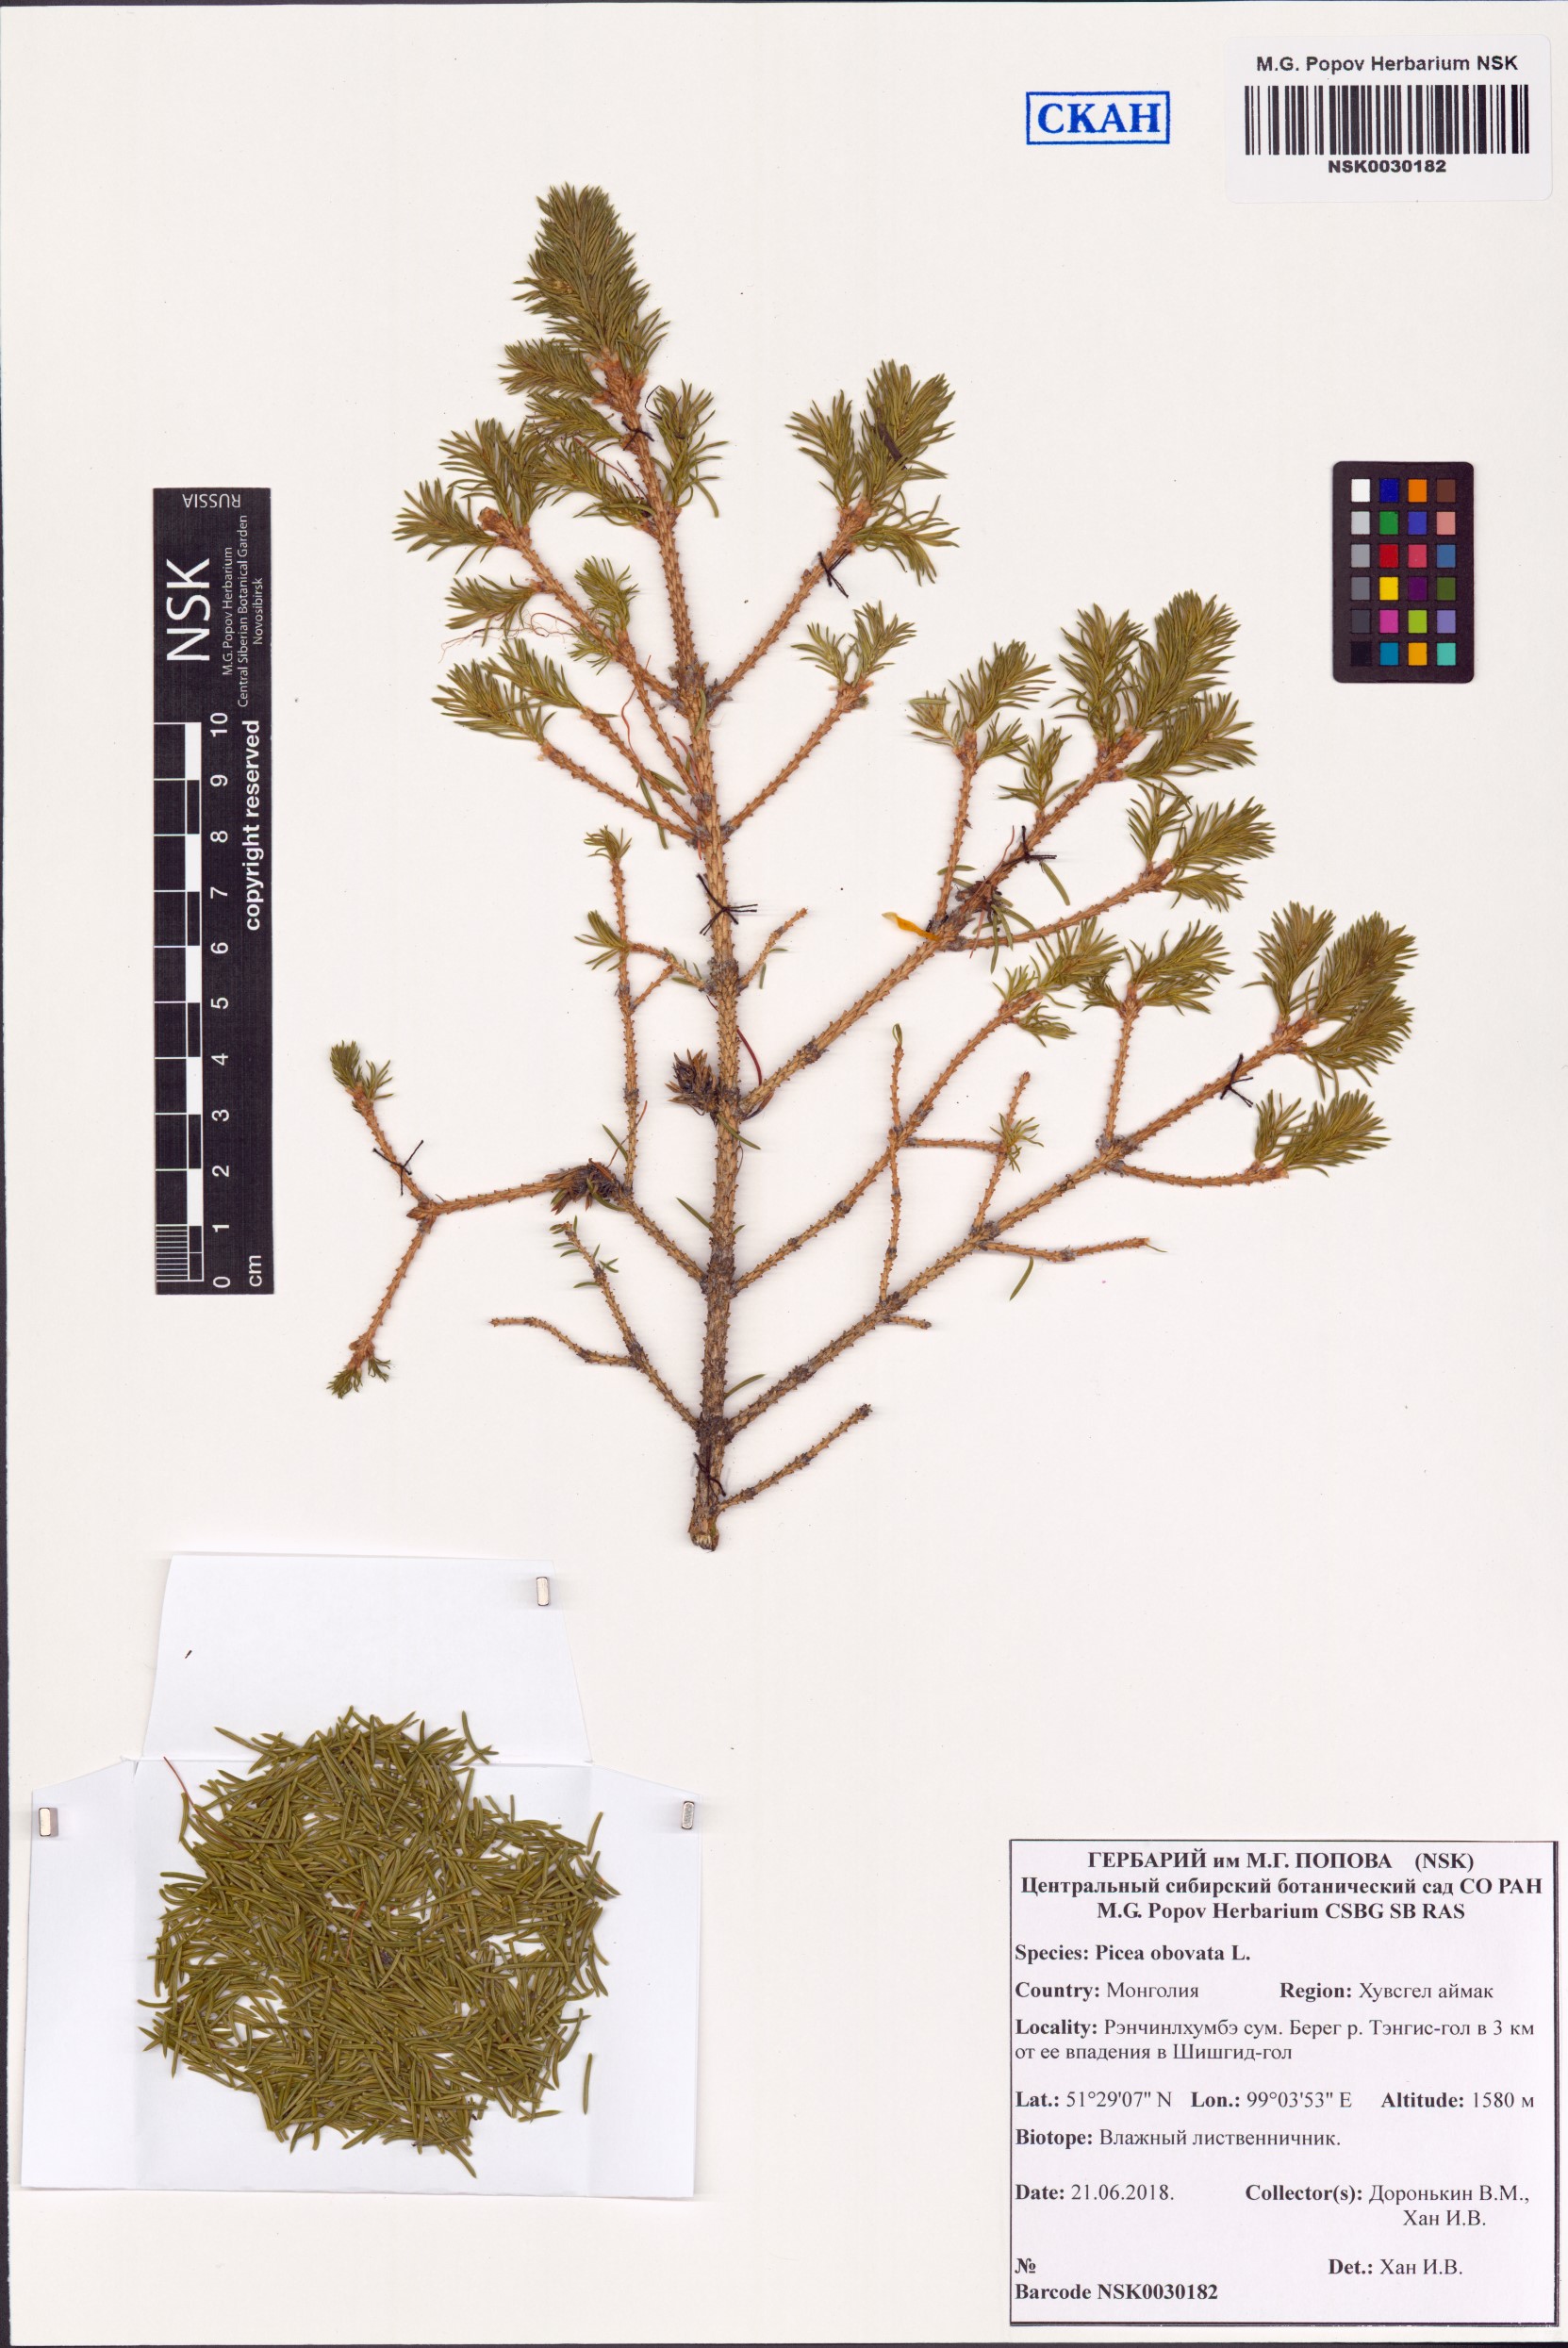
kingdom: Plantae
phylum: Tracheophyta
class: Pinopsida
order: Pinales
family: Pinaceae
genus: Picea
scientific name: Picea obovata
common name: Siberian spruce
